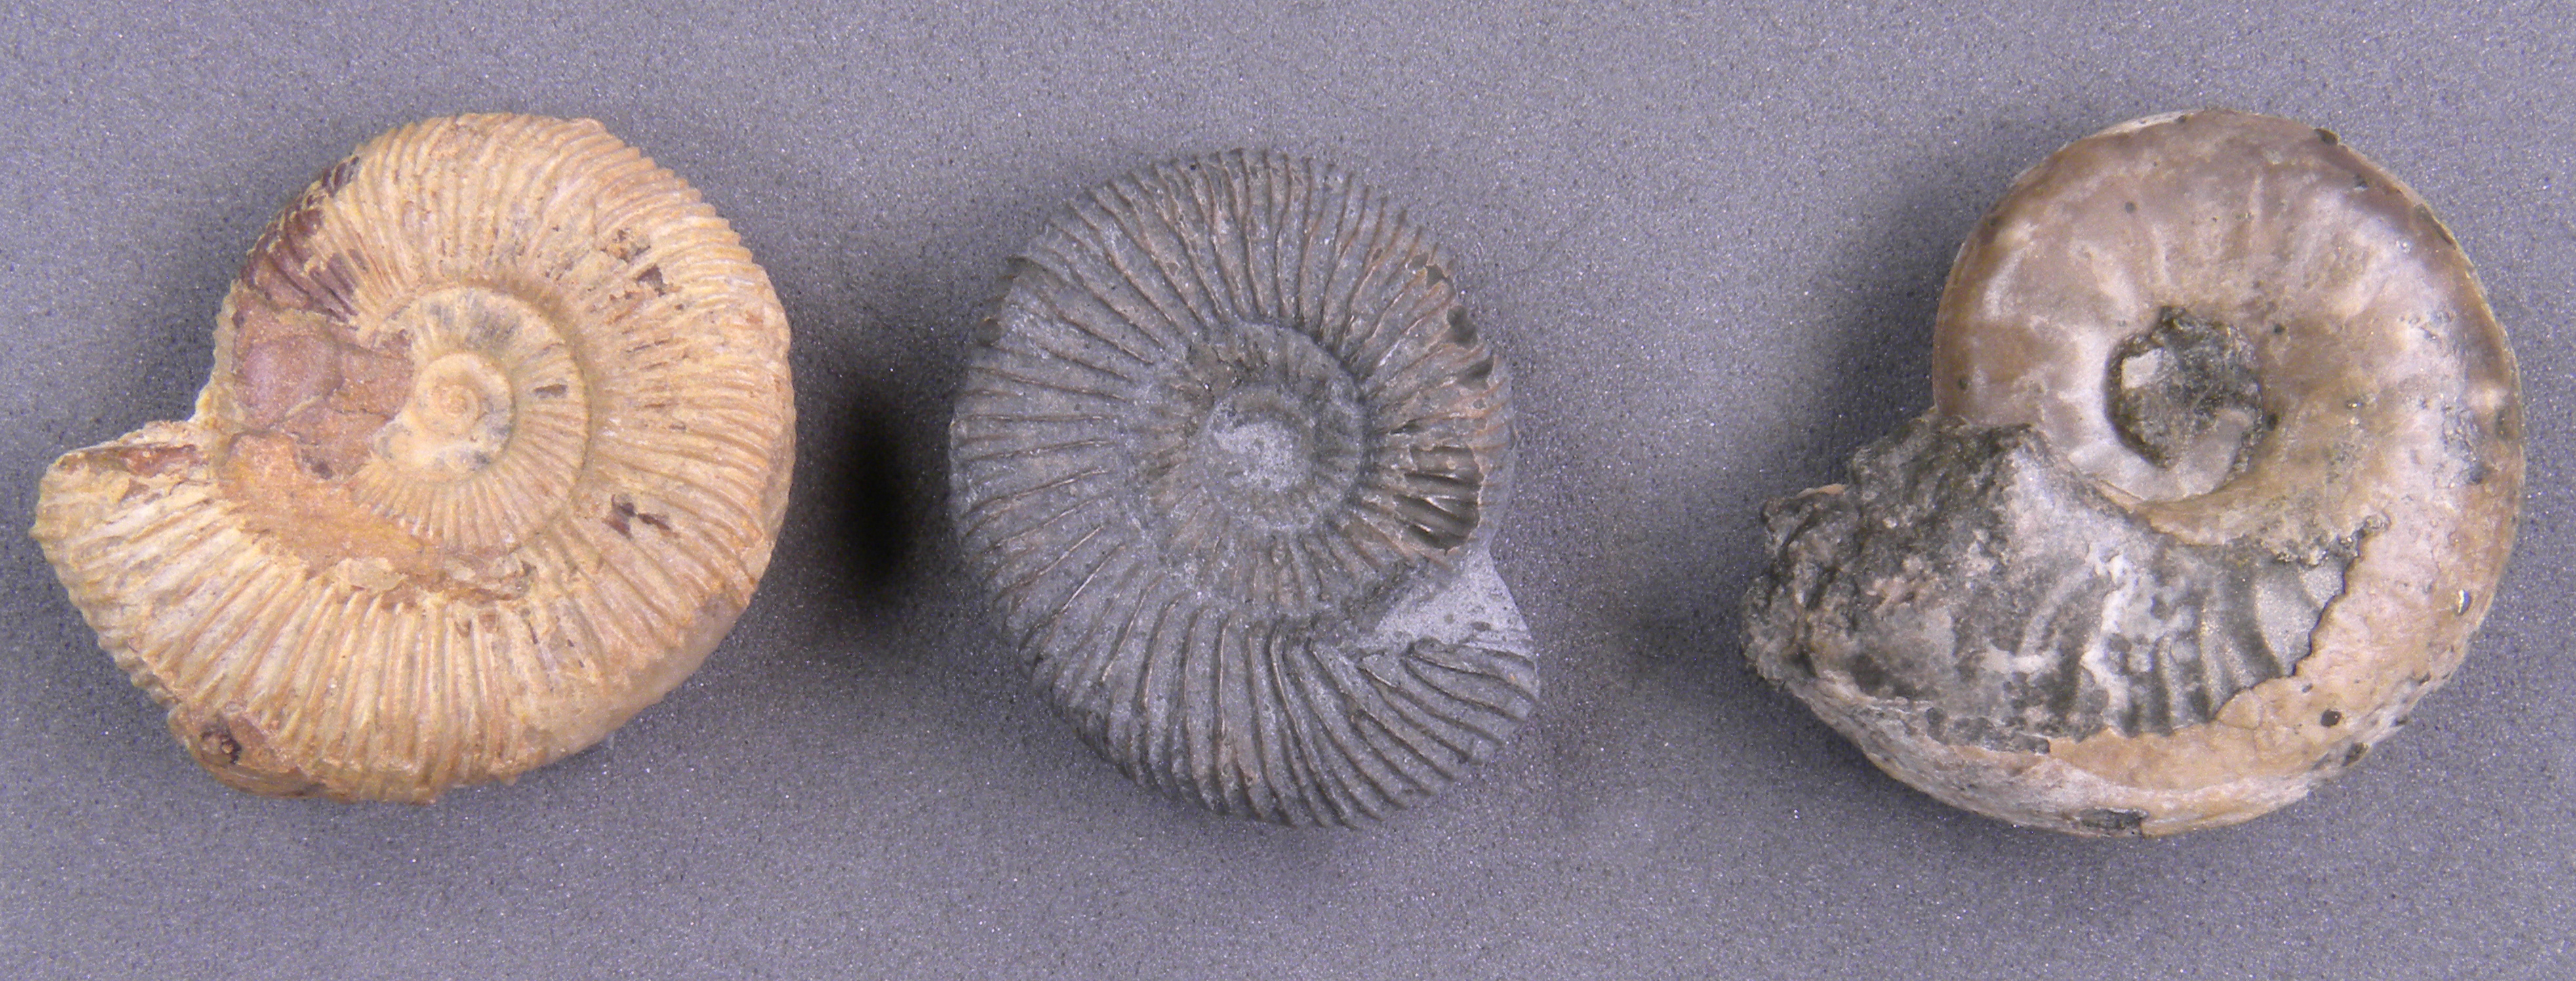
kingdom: Animalia
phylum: Mollusca
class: Cephalopoda
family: Hildoceratidae
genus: Harpoceras
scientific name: Harpoceras soloniacense
